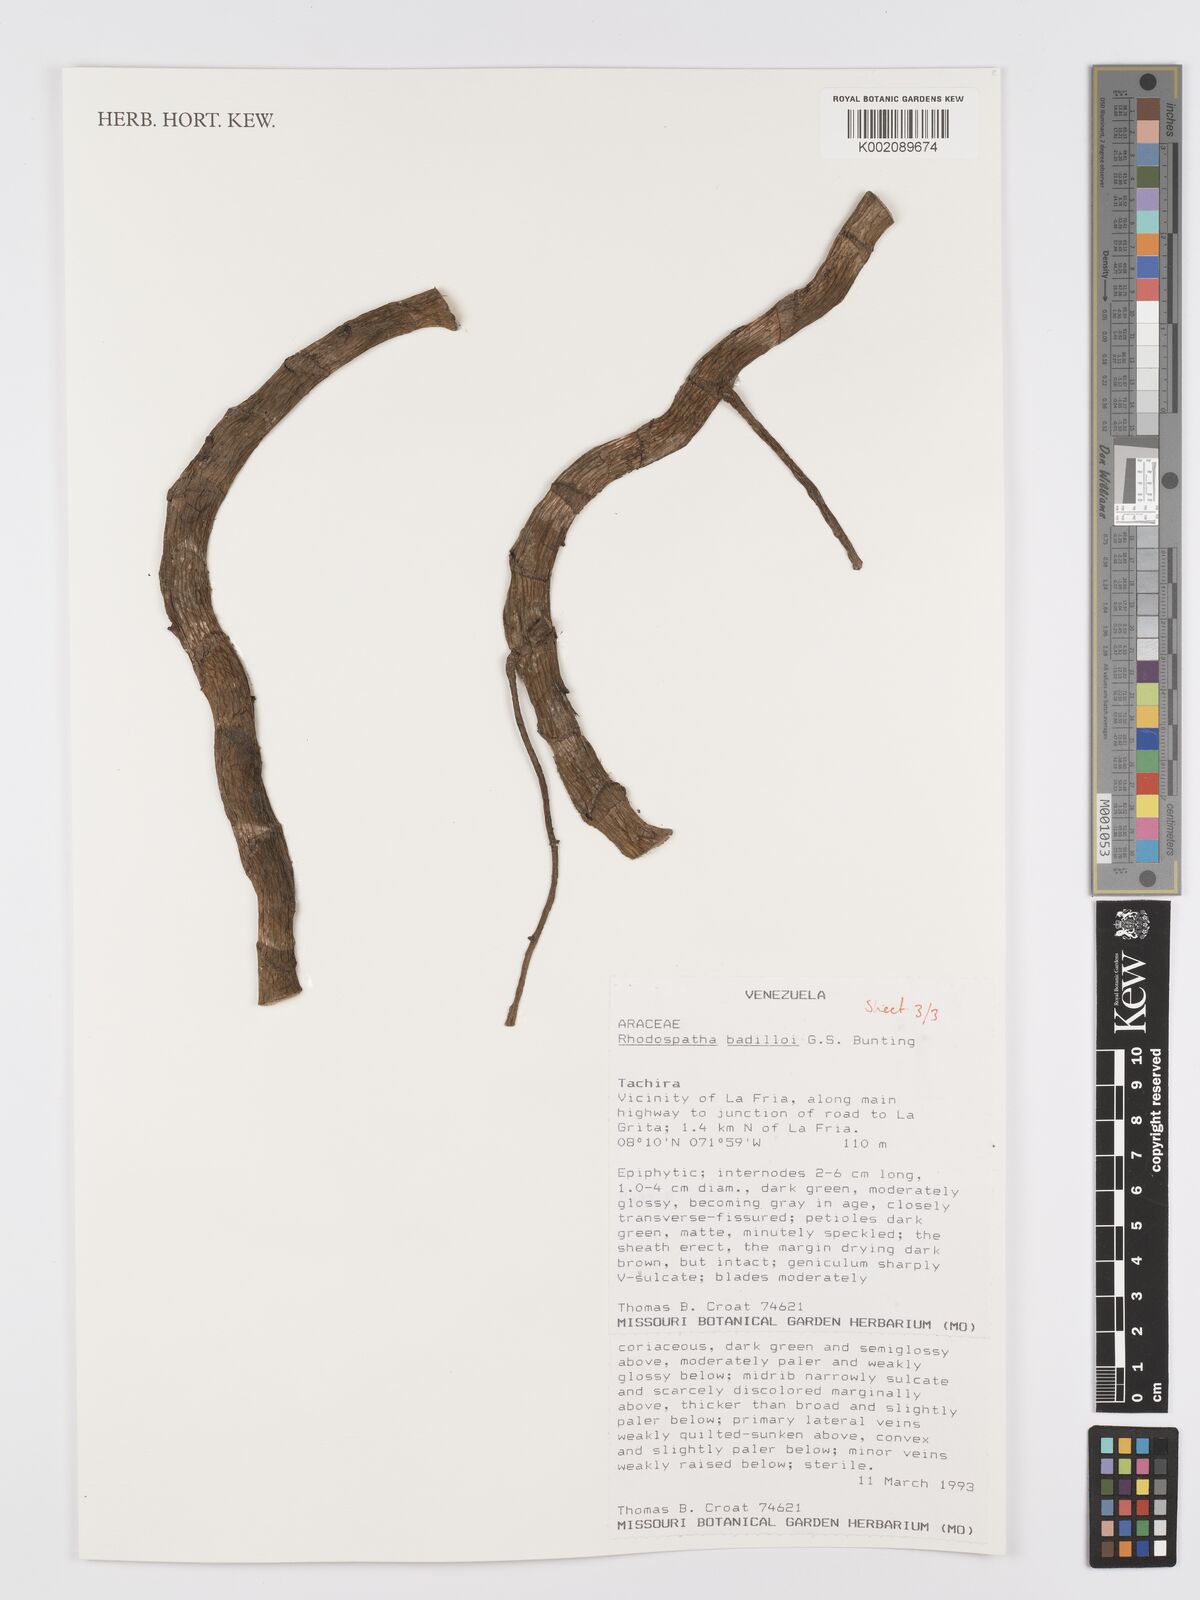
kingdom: Plantae
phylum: Tracheophyta
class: Liliopsida
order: Alismatales
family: Araceae
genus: Rhodospatha
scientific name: Rhodospatha badilloi
